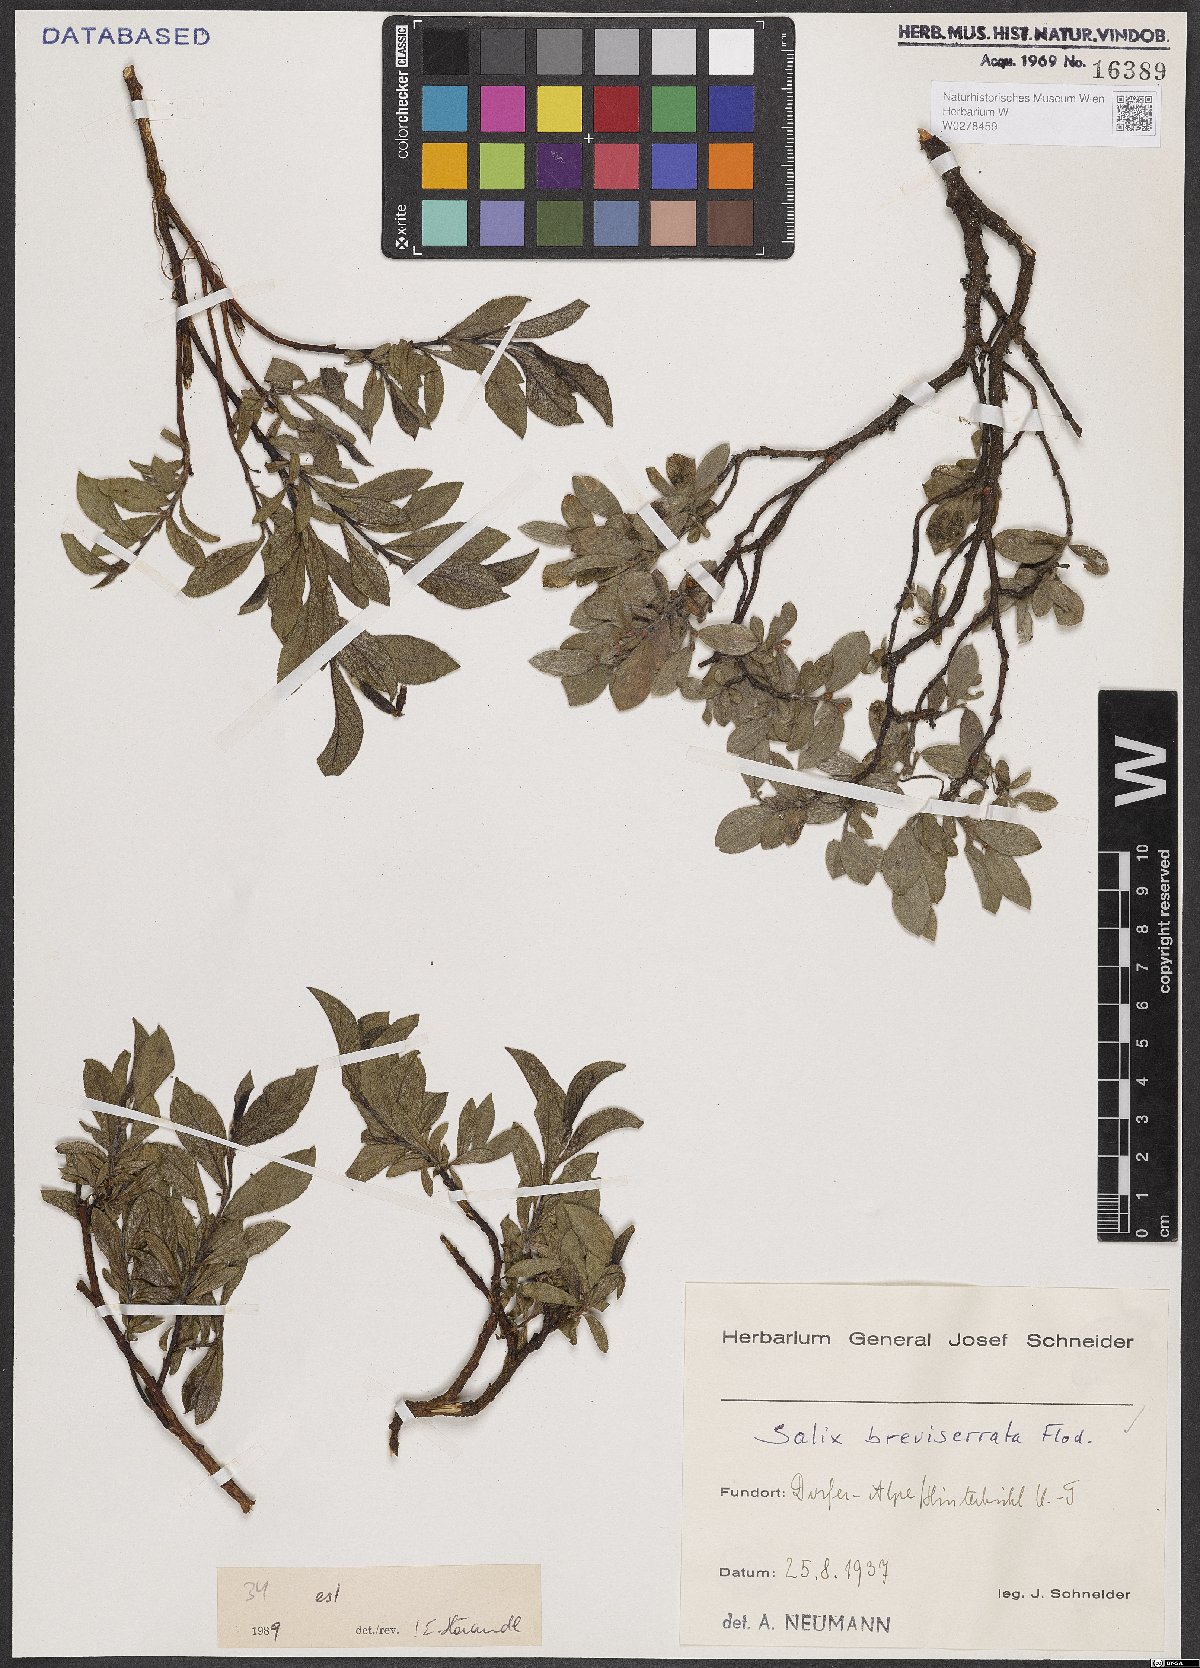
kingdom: Plantae
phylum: Tracheophyta
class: Magnoliopsida
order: Malpighiales
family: Salicaceae
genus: Salix
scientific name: Salix breviserrata
